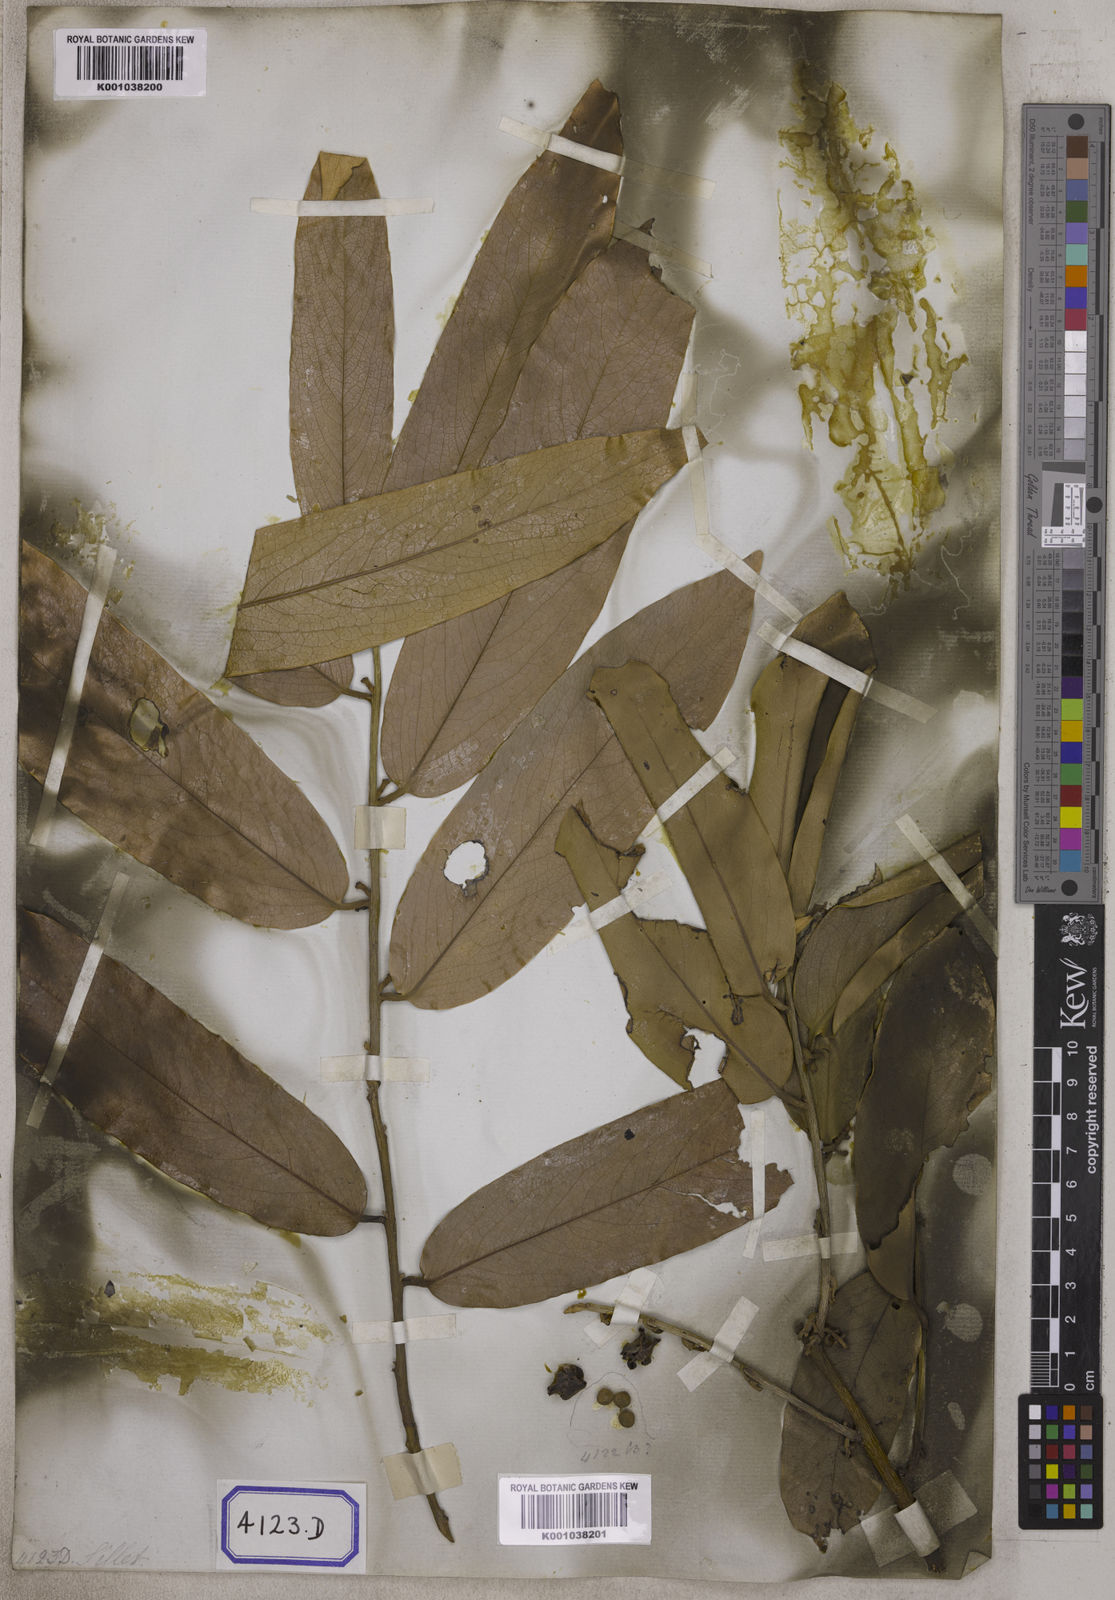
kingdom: Plantae
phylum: Tracheophyta
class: Magnoliopsida
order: Ericales
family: Ebenaceae
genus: Diospyros
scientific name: Diospyros malabarica
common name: Mountain ebony
